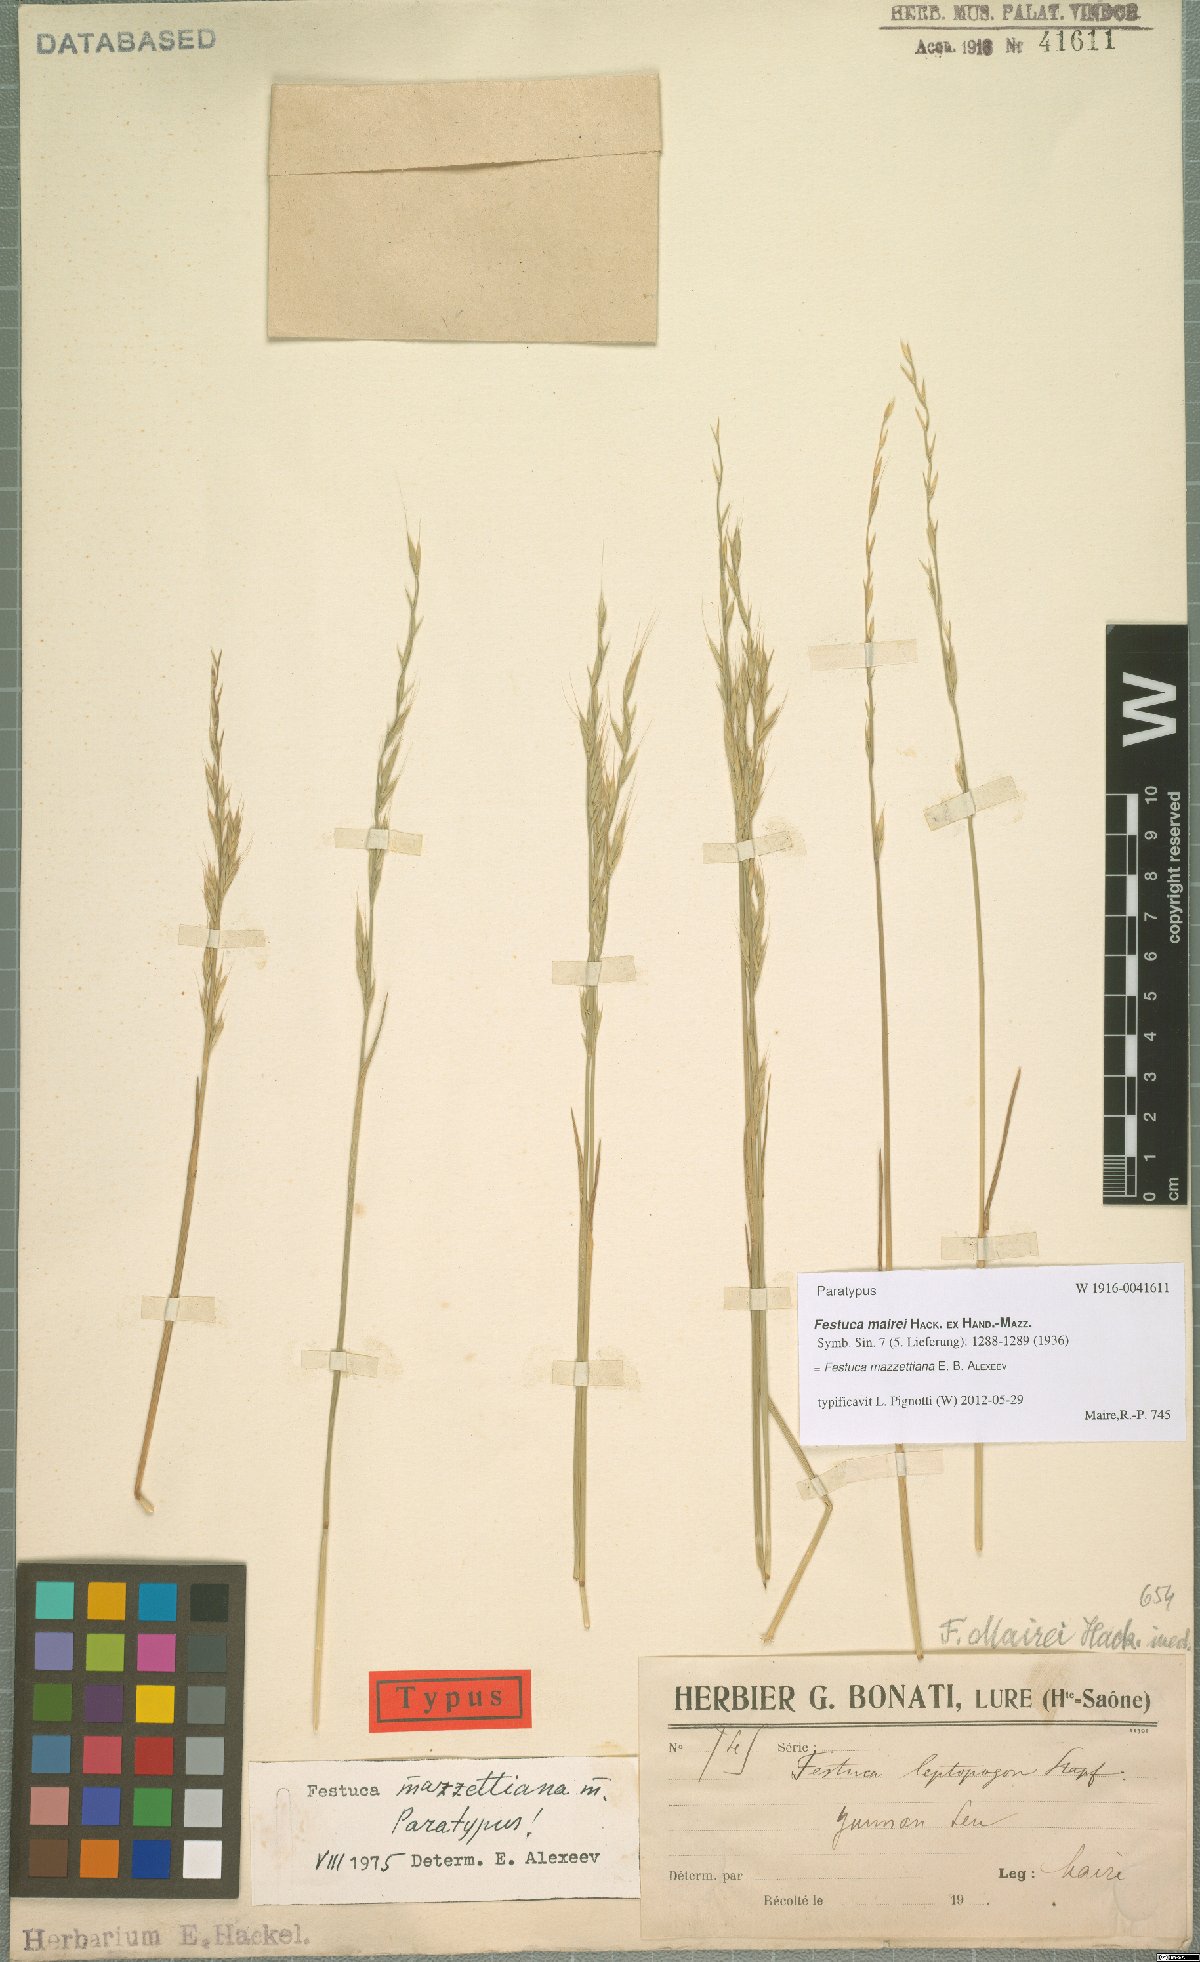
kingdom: Plantae
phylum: Tracheophyta
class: Liliopsida
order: Poales
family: Poaceae
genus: Lolium
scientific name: Lolium mazzettianum
